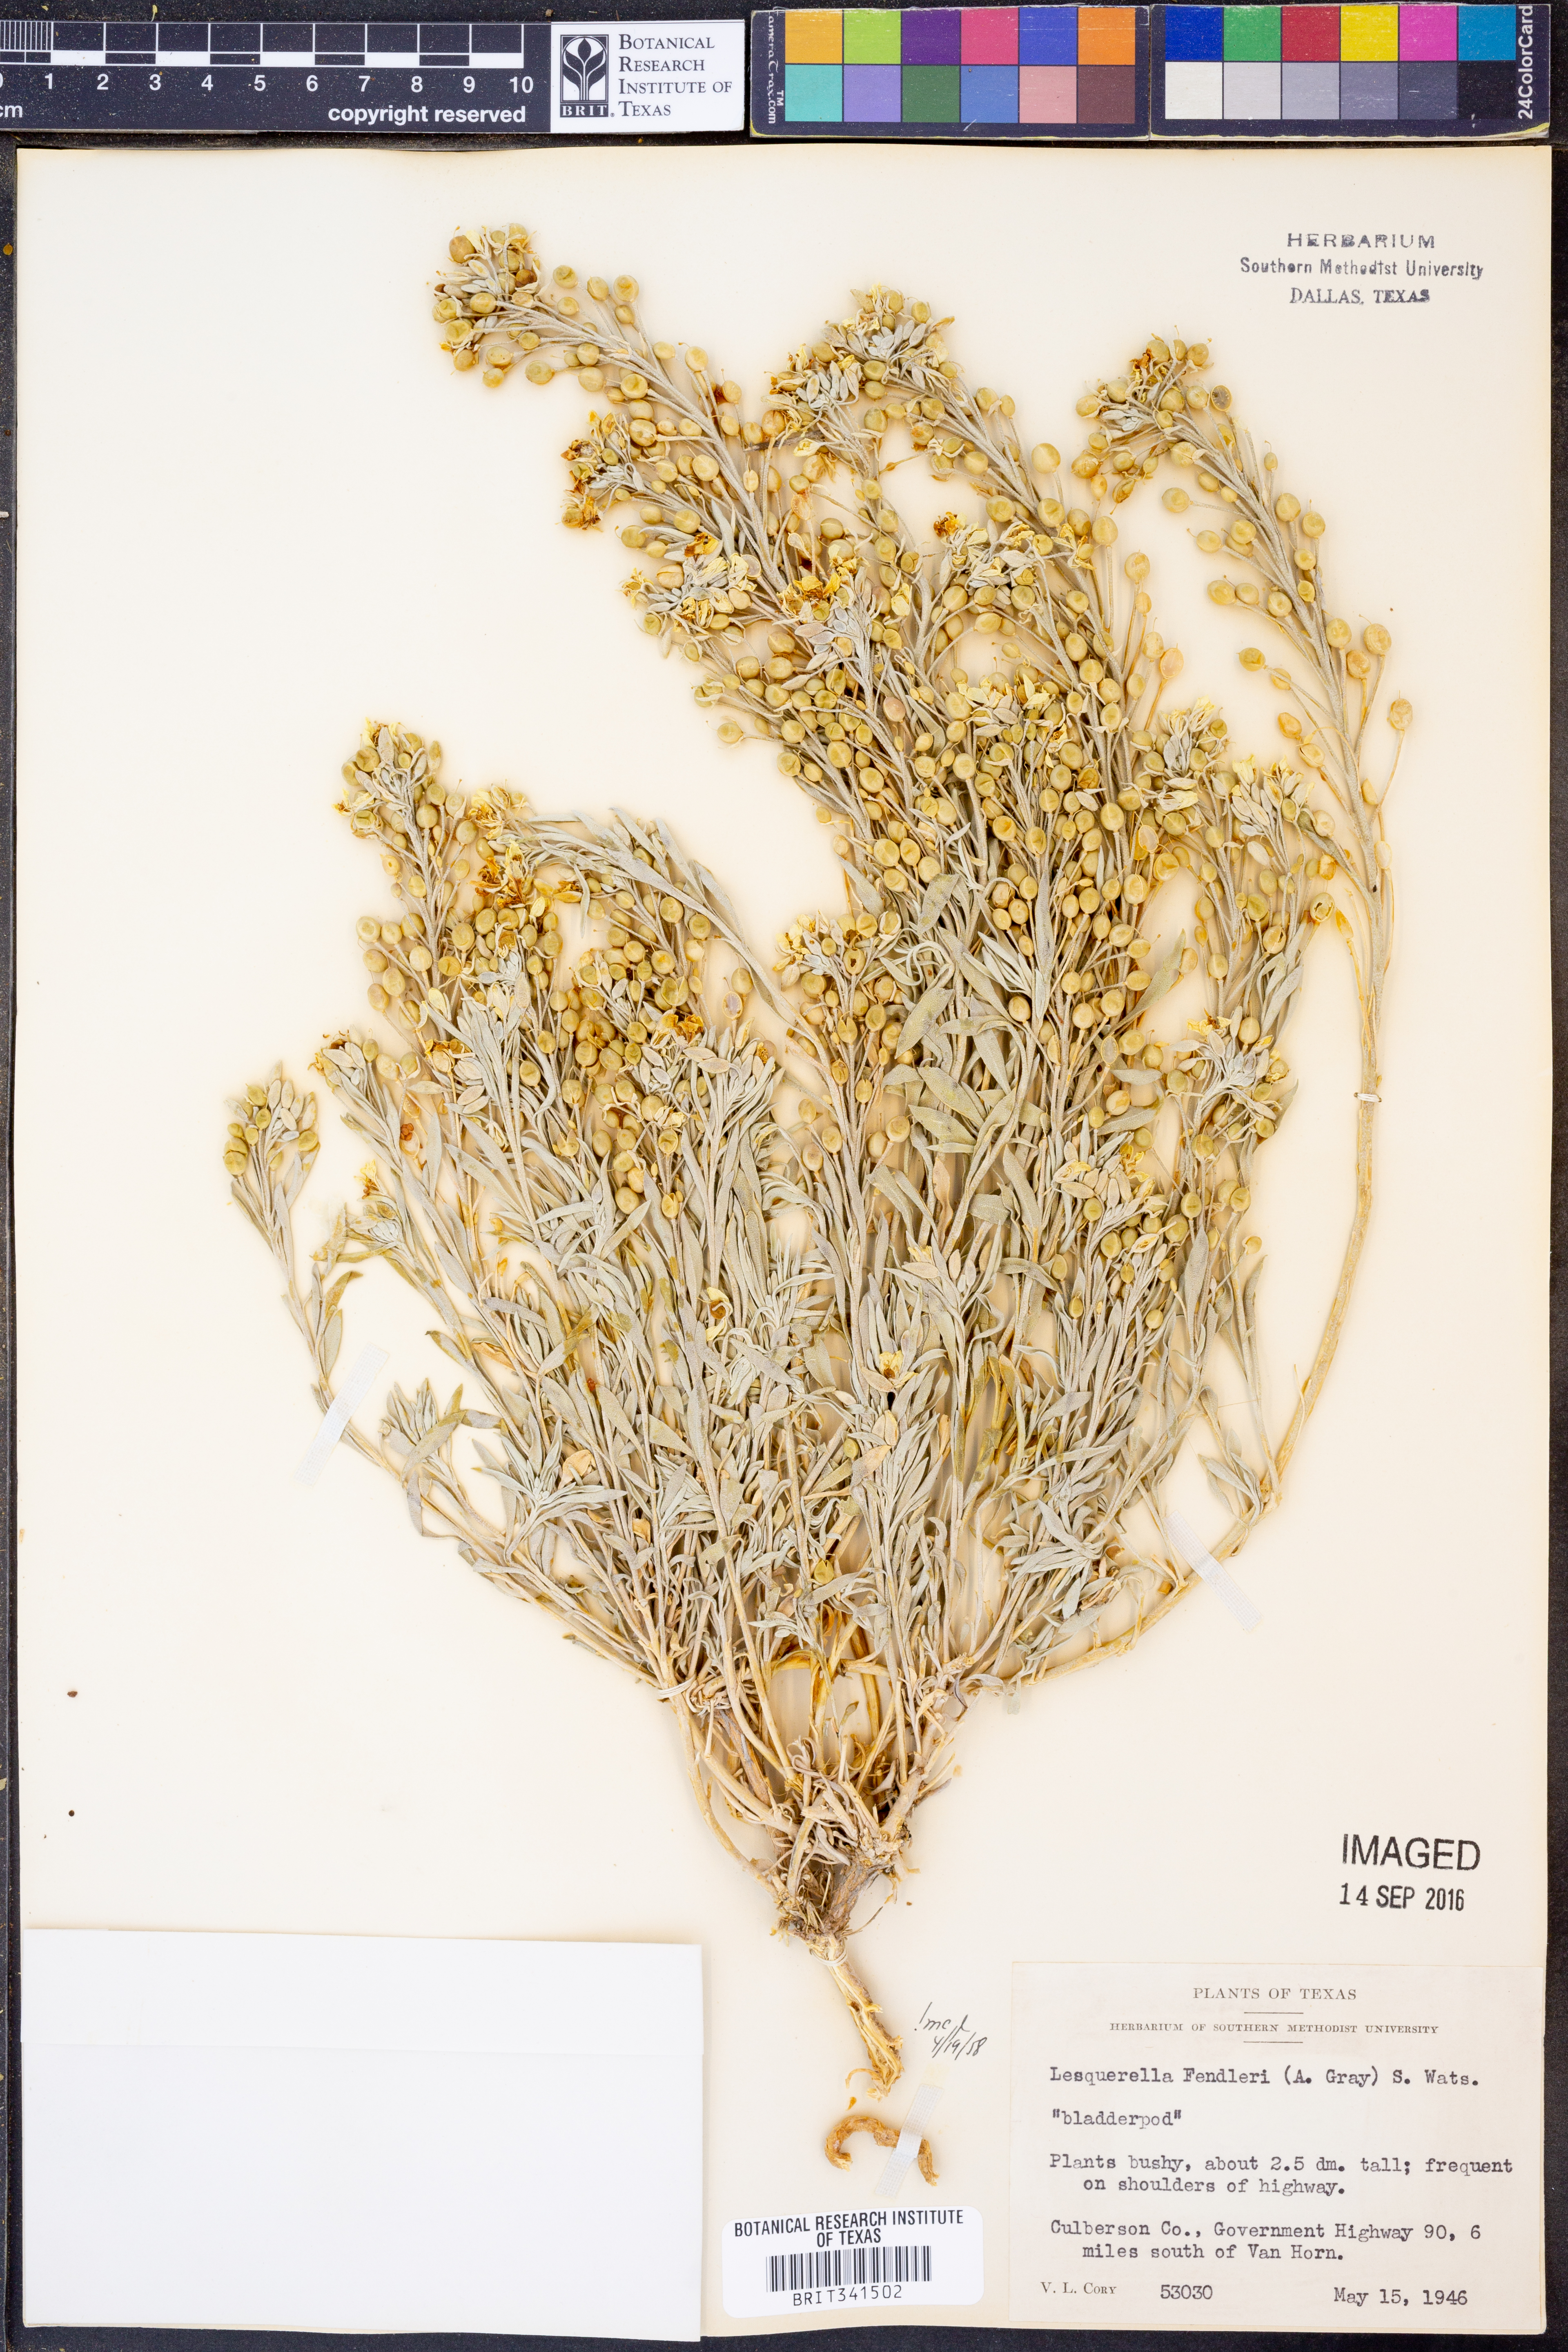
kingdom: Plantae
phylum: Tracheophyta
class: Magnoliopsida
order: Brassicales
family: Brassicaceae
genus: Physaria
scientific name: Physaria fendleri
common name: Fendler's bladderpod
